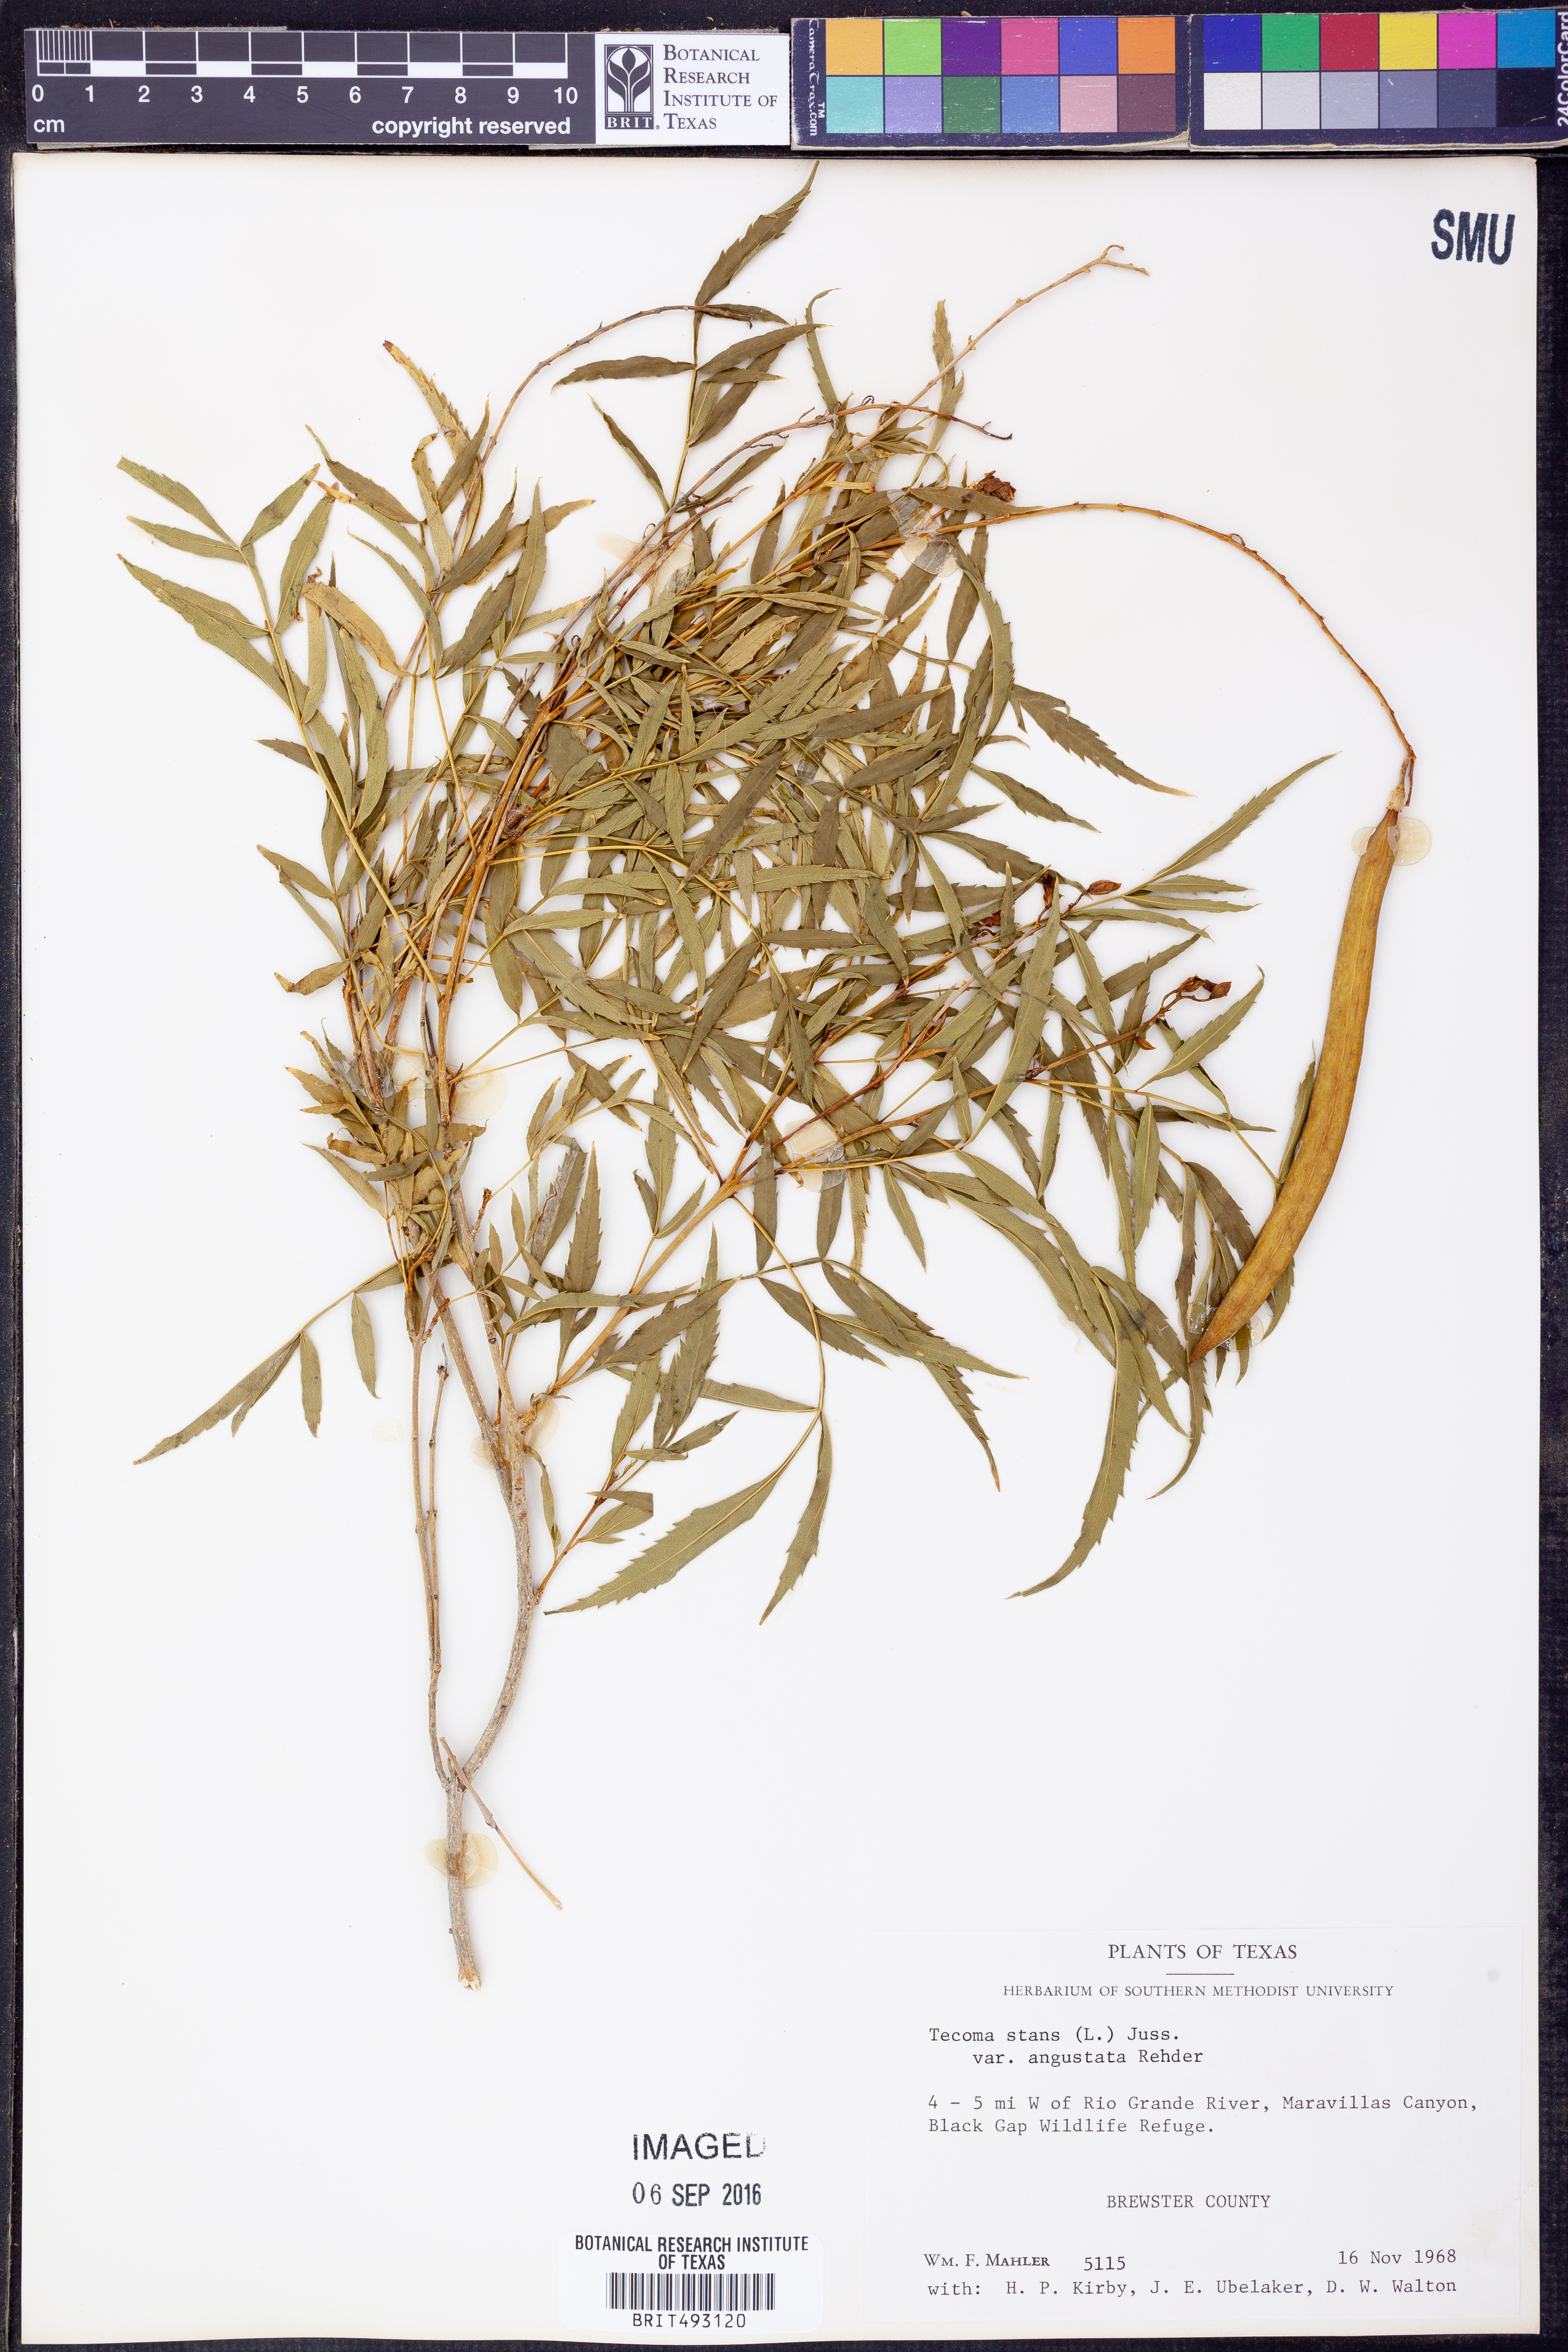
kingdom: Plantae
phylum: Tracheophyta
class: Magnoliopsida
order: Lamiales
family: Bignoniaceae
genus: Tecoma
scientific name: Tecoma stans
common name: Yellow trumpetbush
